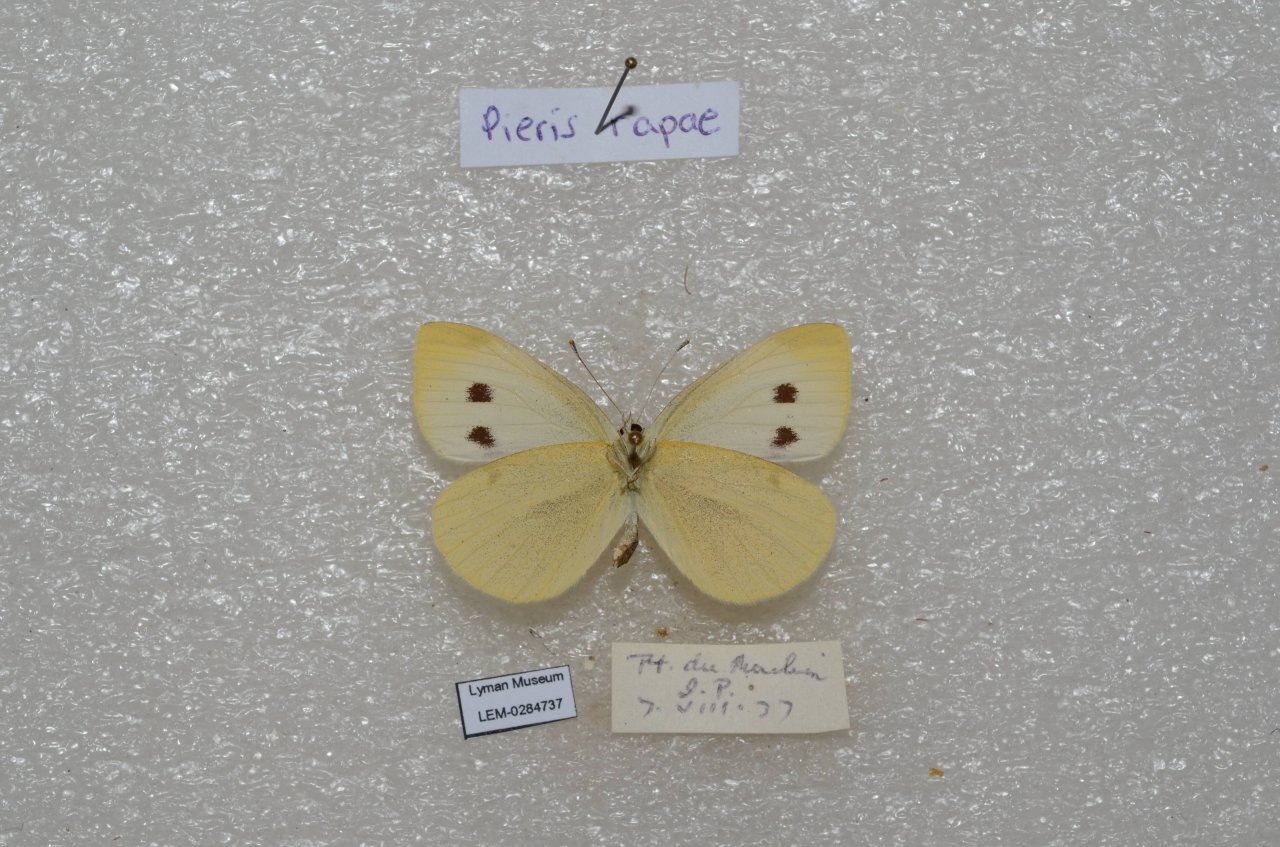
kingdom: Animalia
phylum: Arthropoda
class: Insecta
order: Lepidoptera
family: Pieridae
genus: Pieris
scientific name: Pieris rapae
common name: Cabbage White
